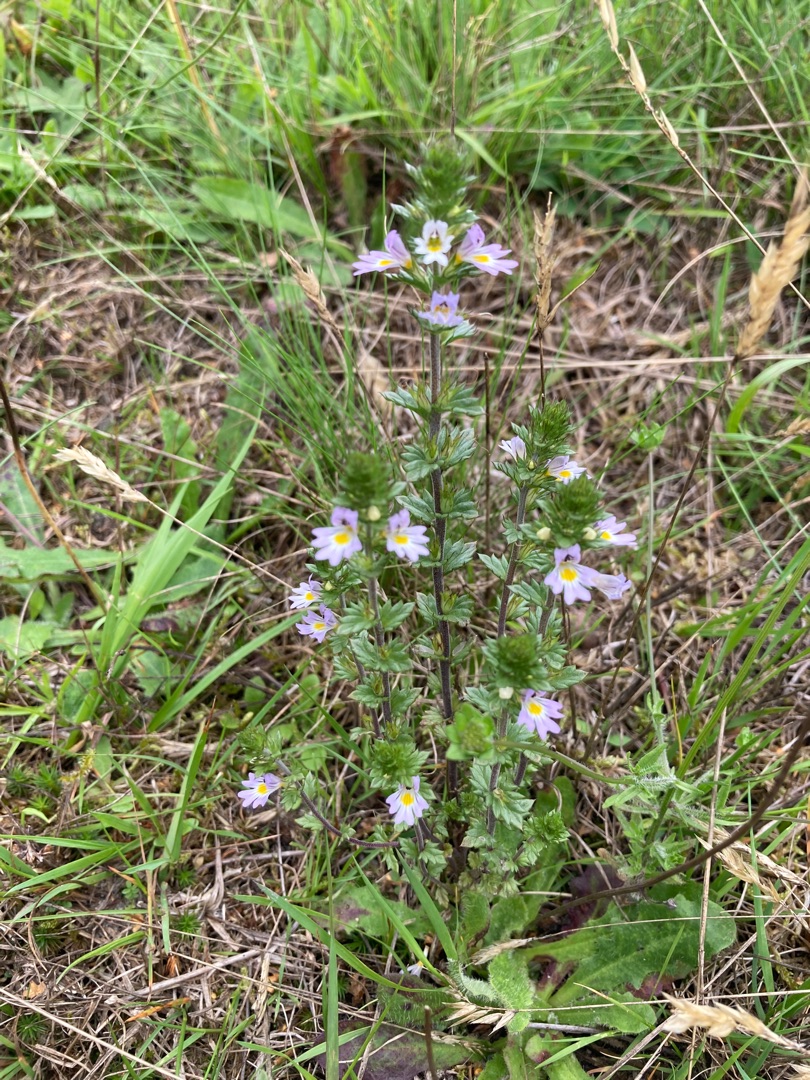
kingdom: Plantae
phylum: Tracheophyta
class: Magnoliopsida
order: Lamiales
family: Orobanchaceae
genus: Euphrasia
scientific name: Euphrasia stricta
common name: Spids øjentrøst
